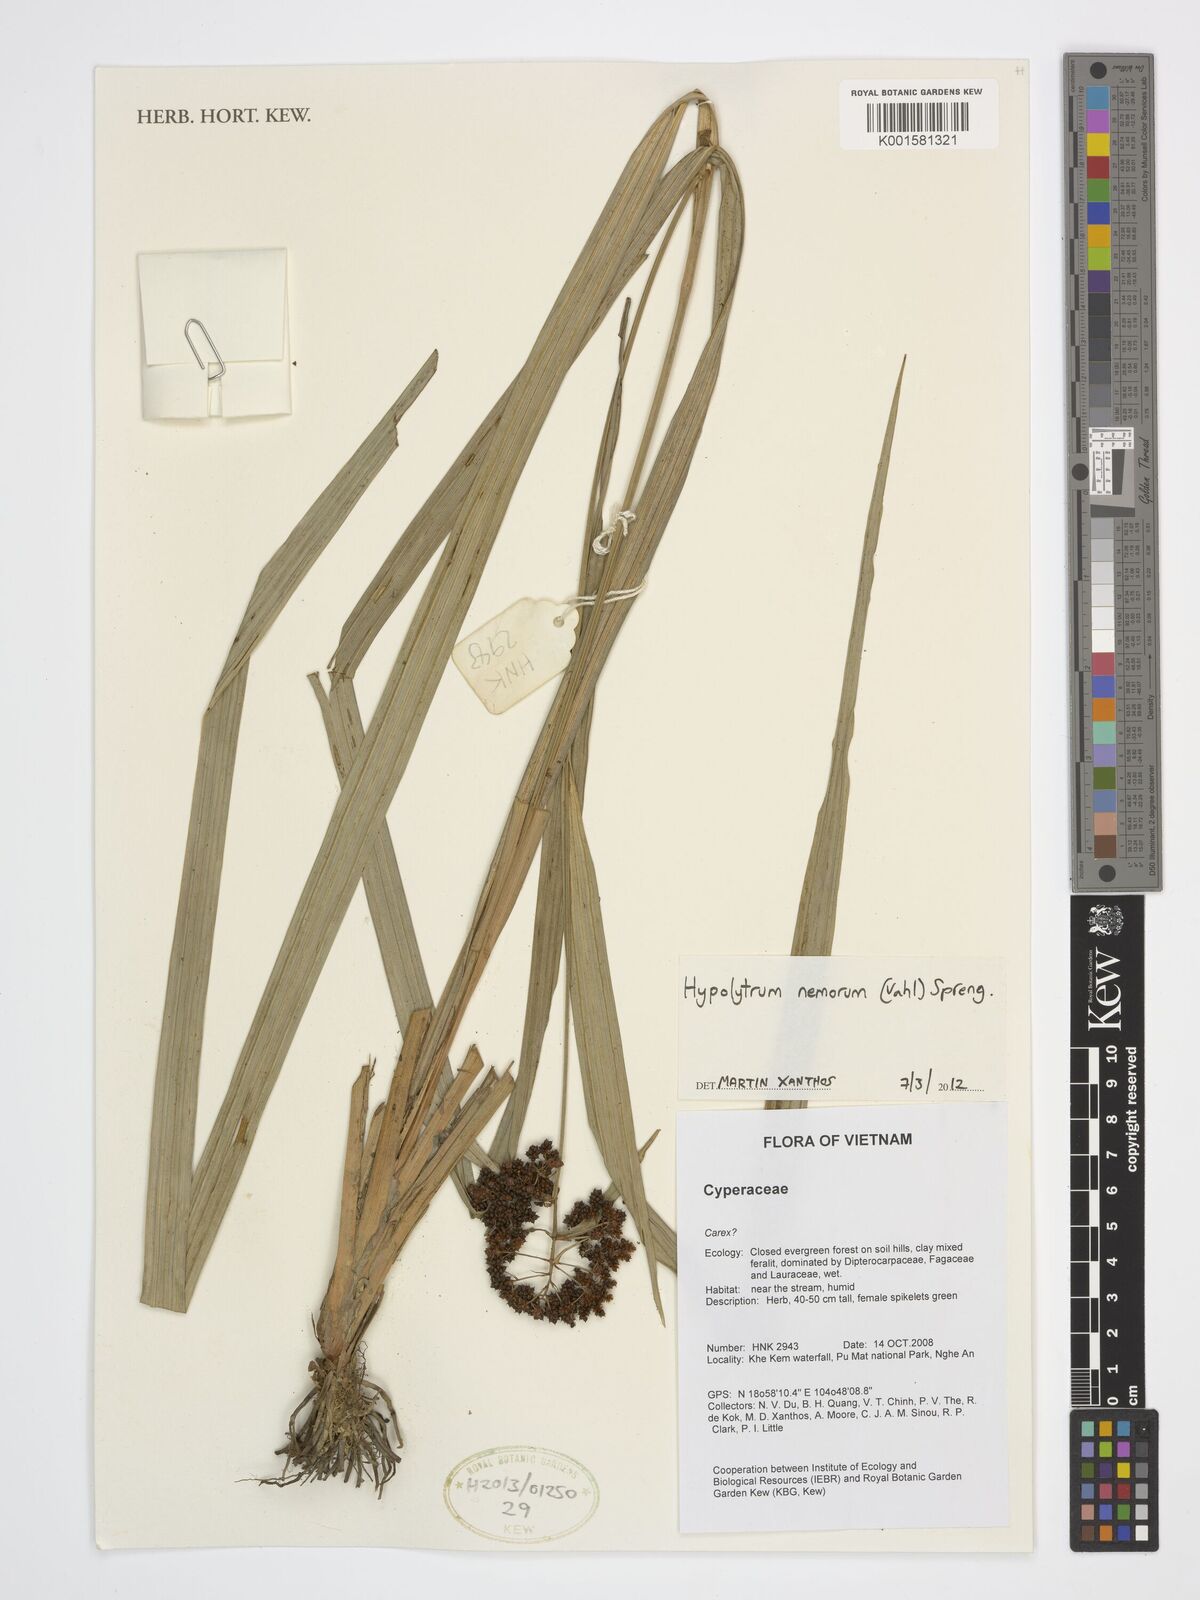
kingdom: Plantae
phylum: Tracheophyta
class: Liliopsida
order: Poales
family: Cyperaceae
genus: Hypolytrum
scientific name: Hypolytrum nemorum
